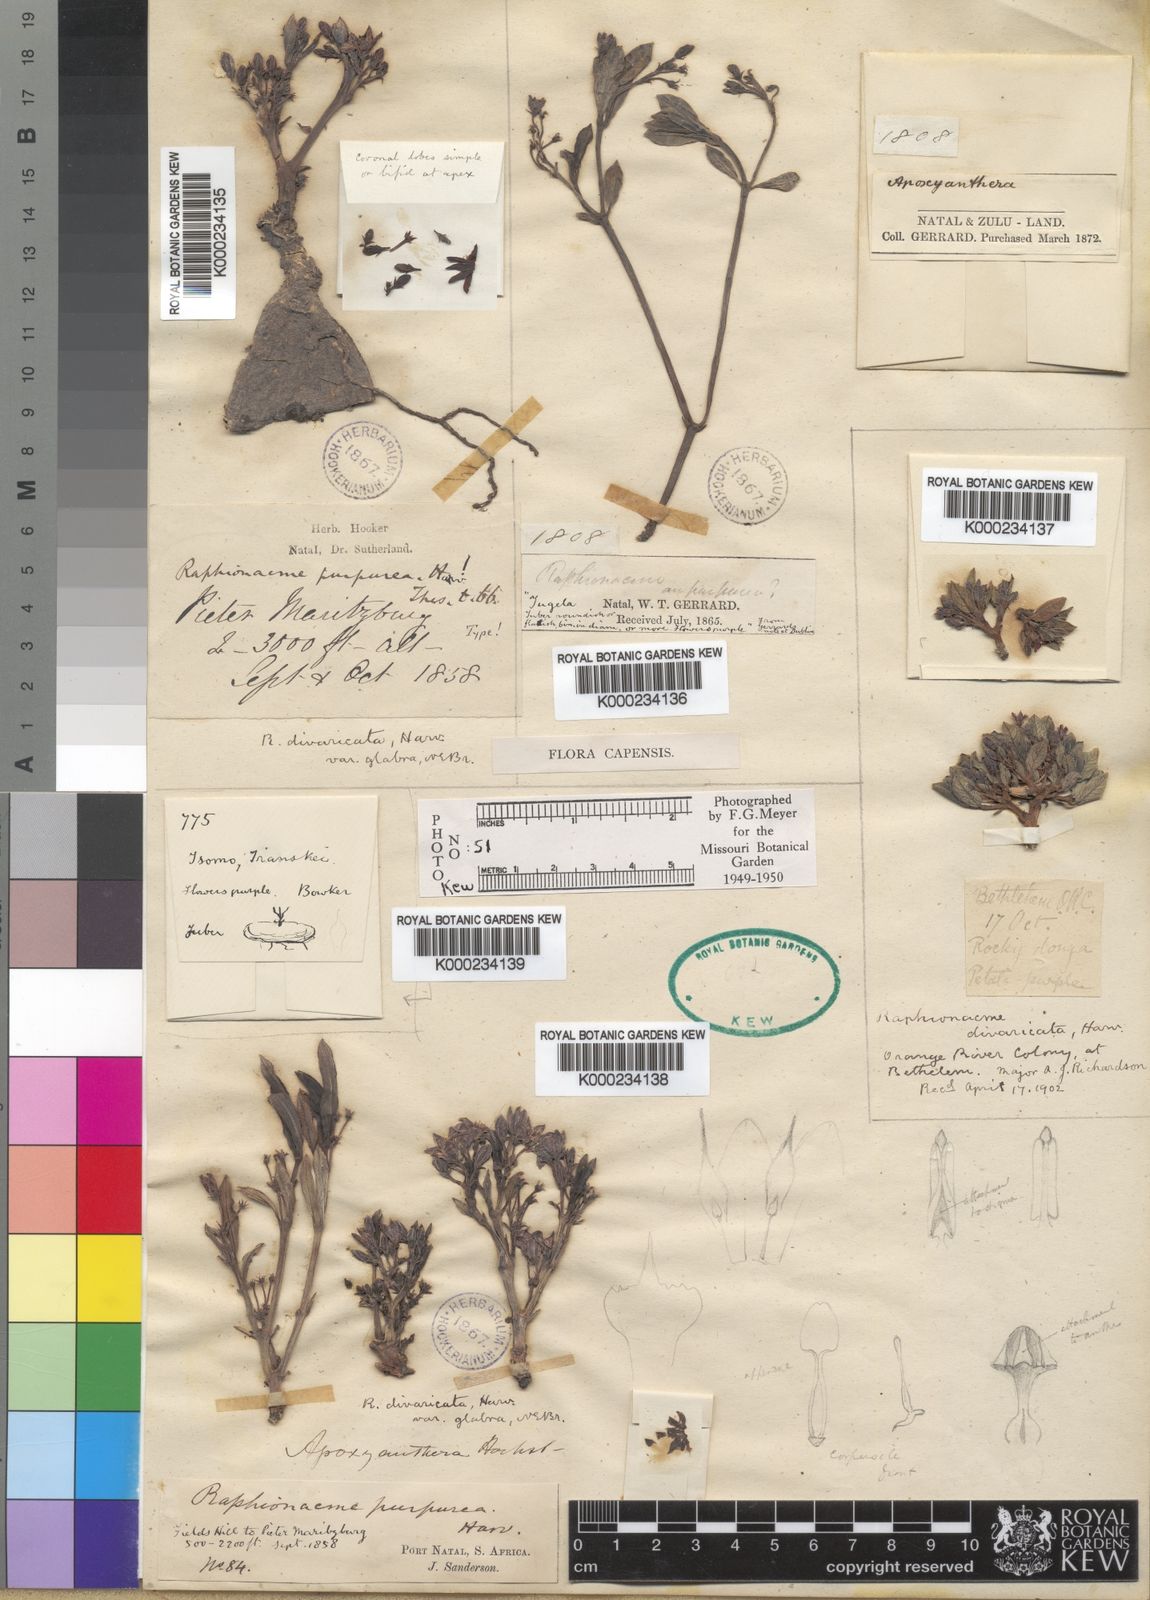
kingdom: Plantae
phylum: Tracheophyta
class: Magnoliopsida
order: Gentianales
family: Apocynaceae
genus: Raphionacme
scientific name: Raphionacme hirsuta
